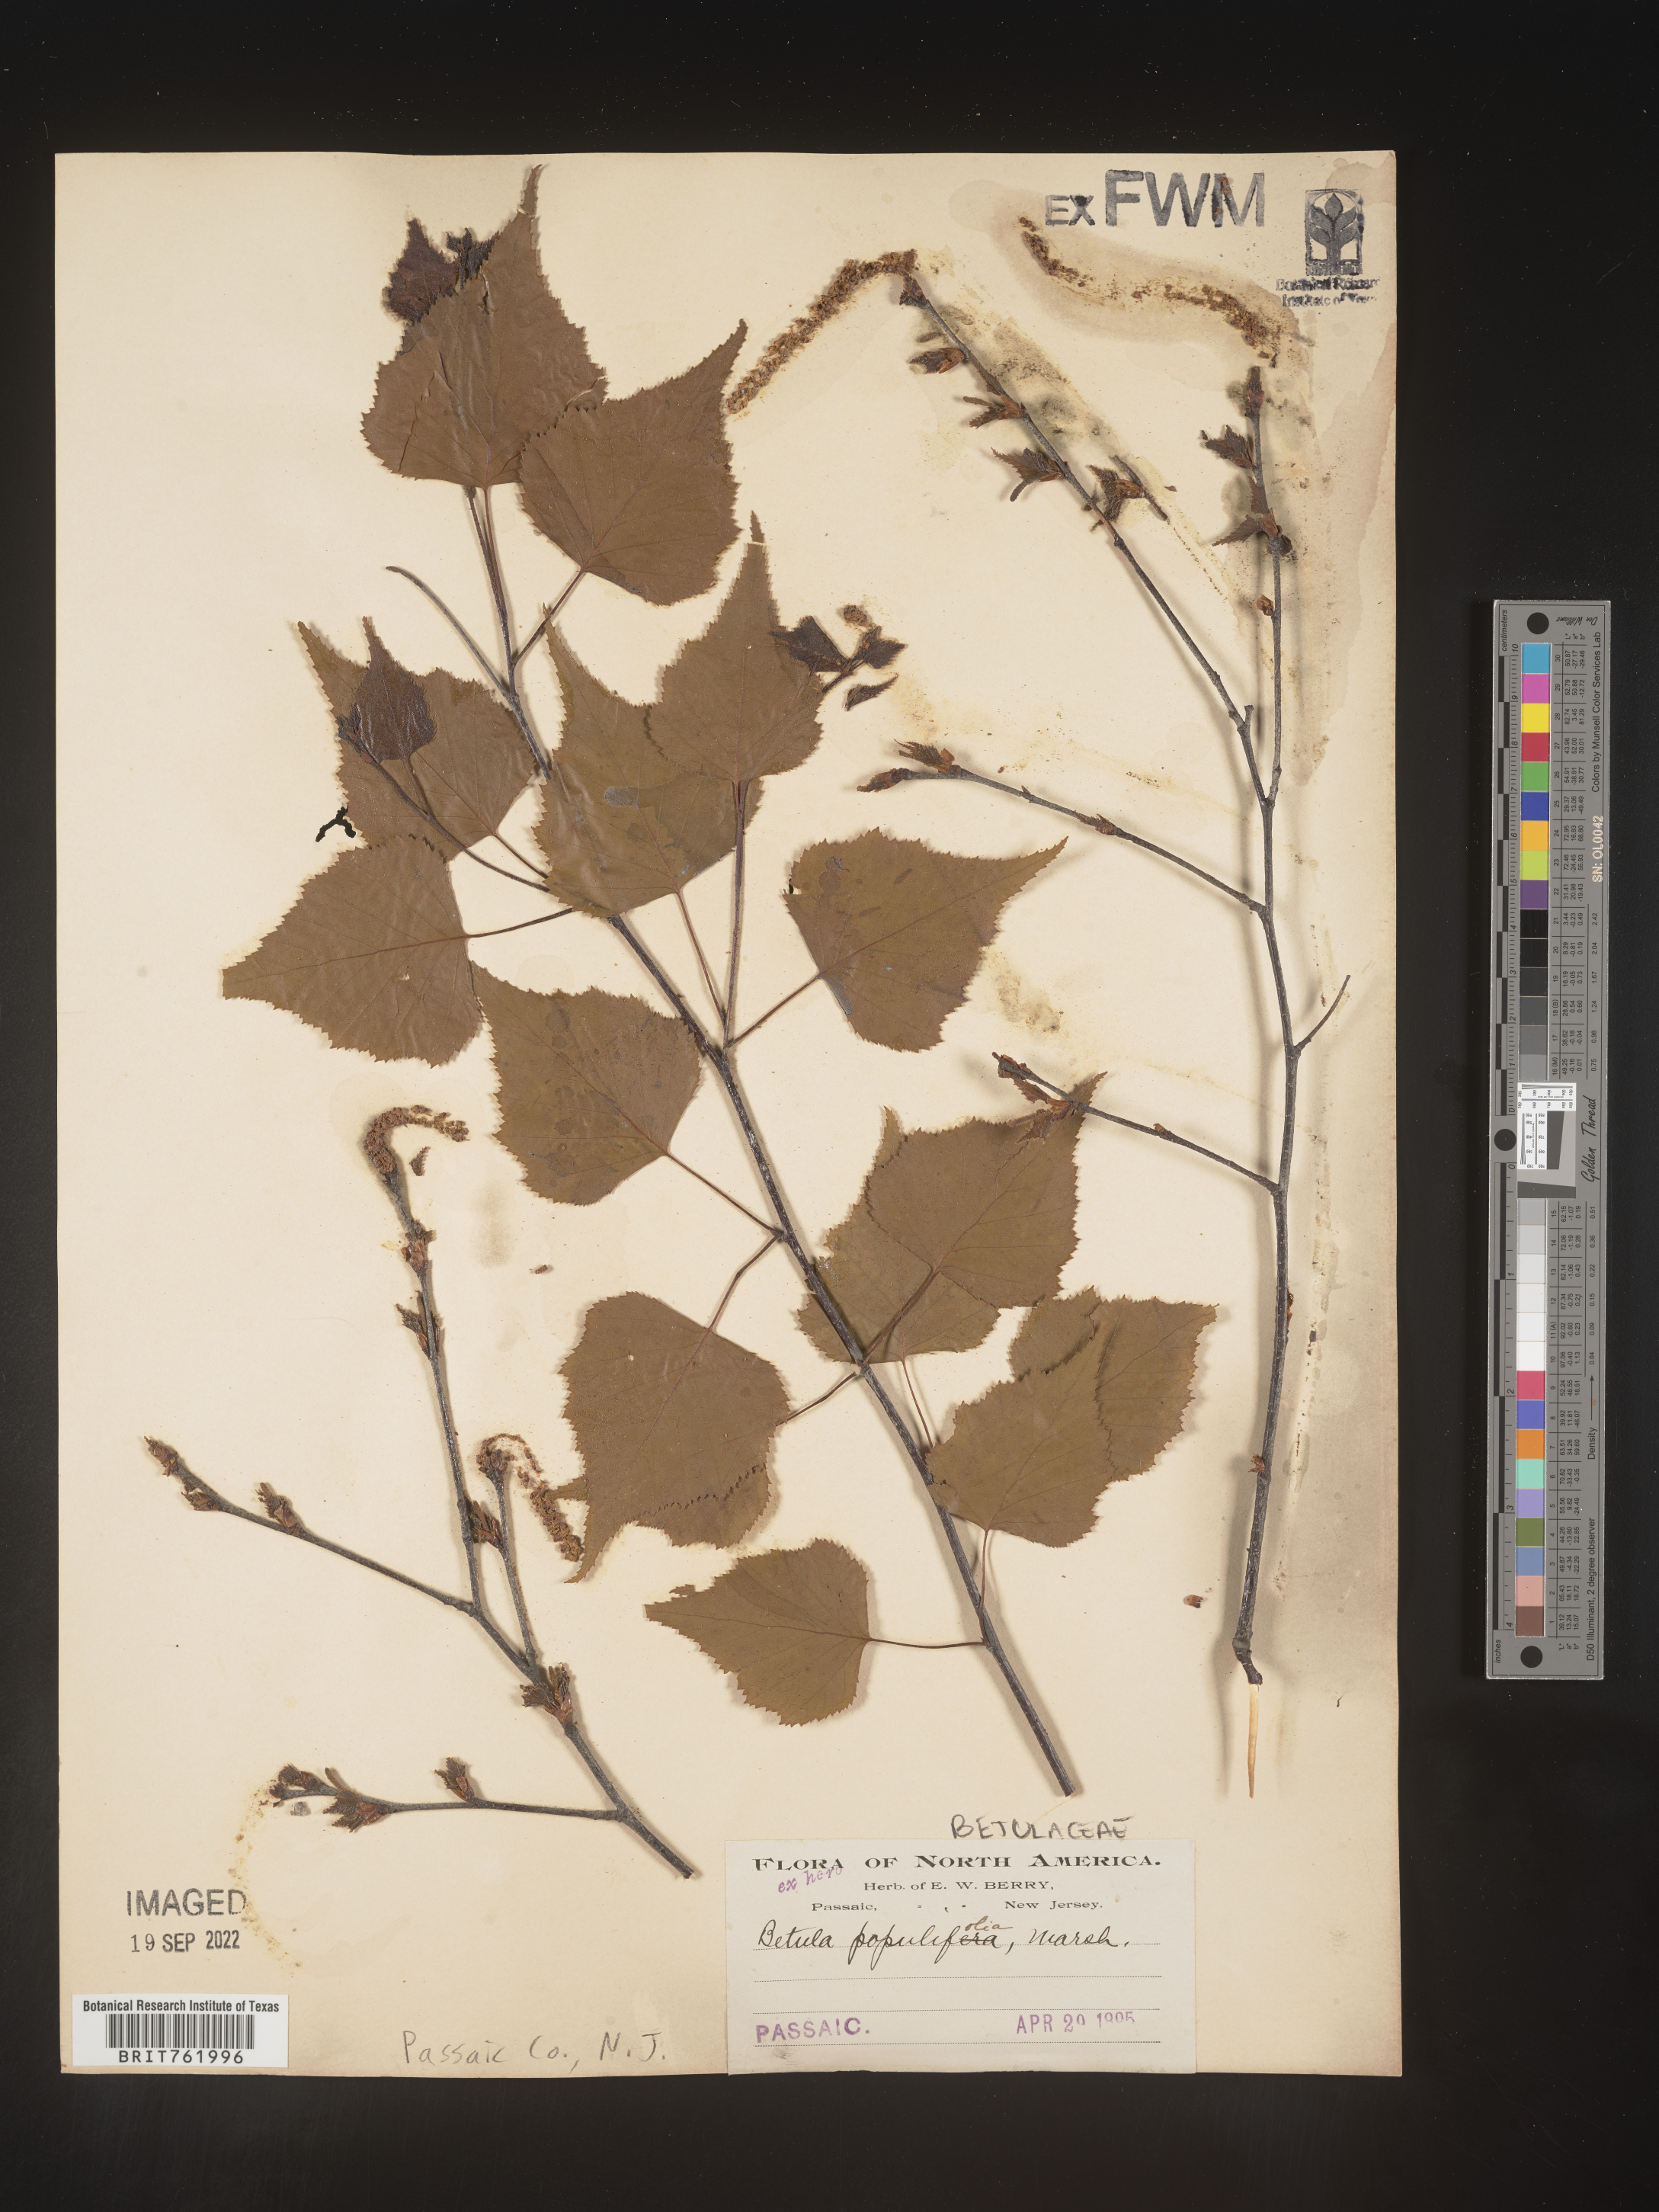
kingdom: Plantae
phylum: Tracheophyta
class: Magnoliopsida
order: Fagales
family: Betulaceae
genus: Betula
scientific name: Betula populifolia
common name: Fire birch
